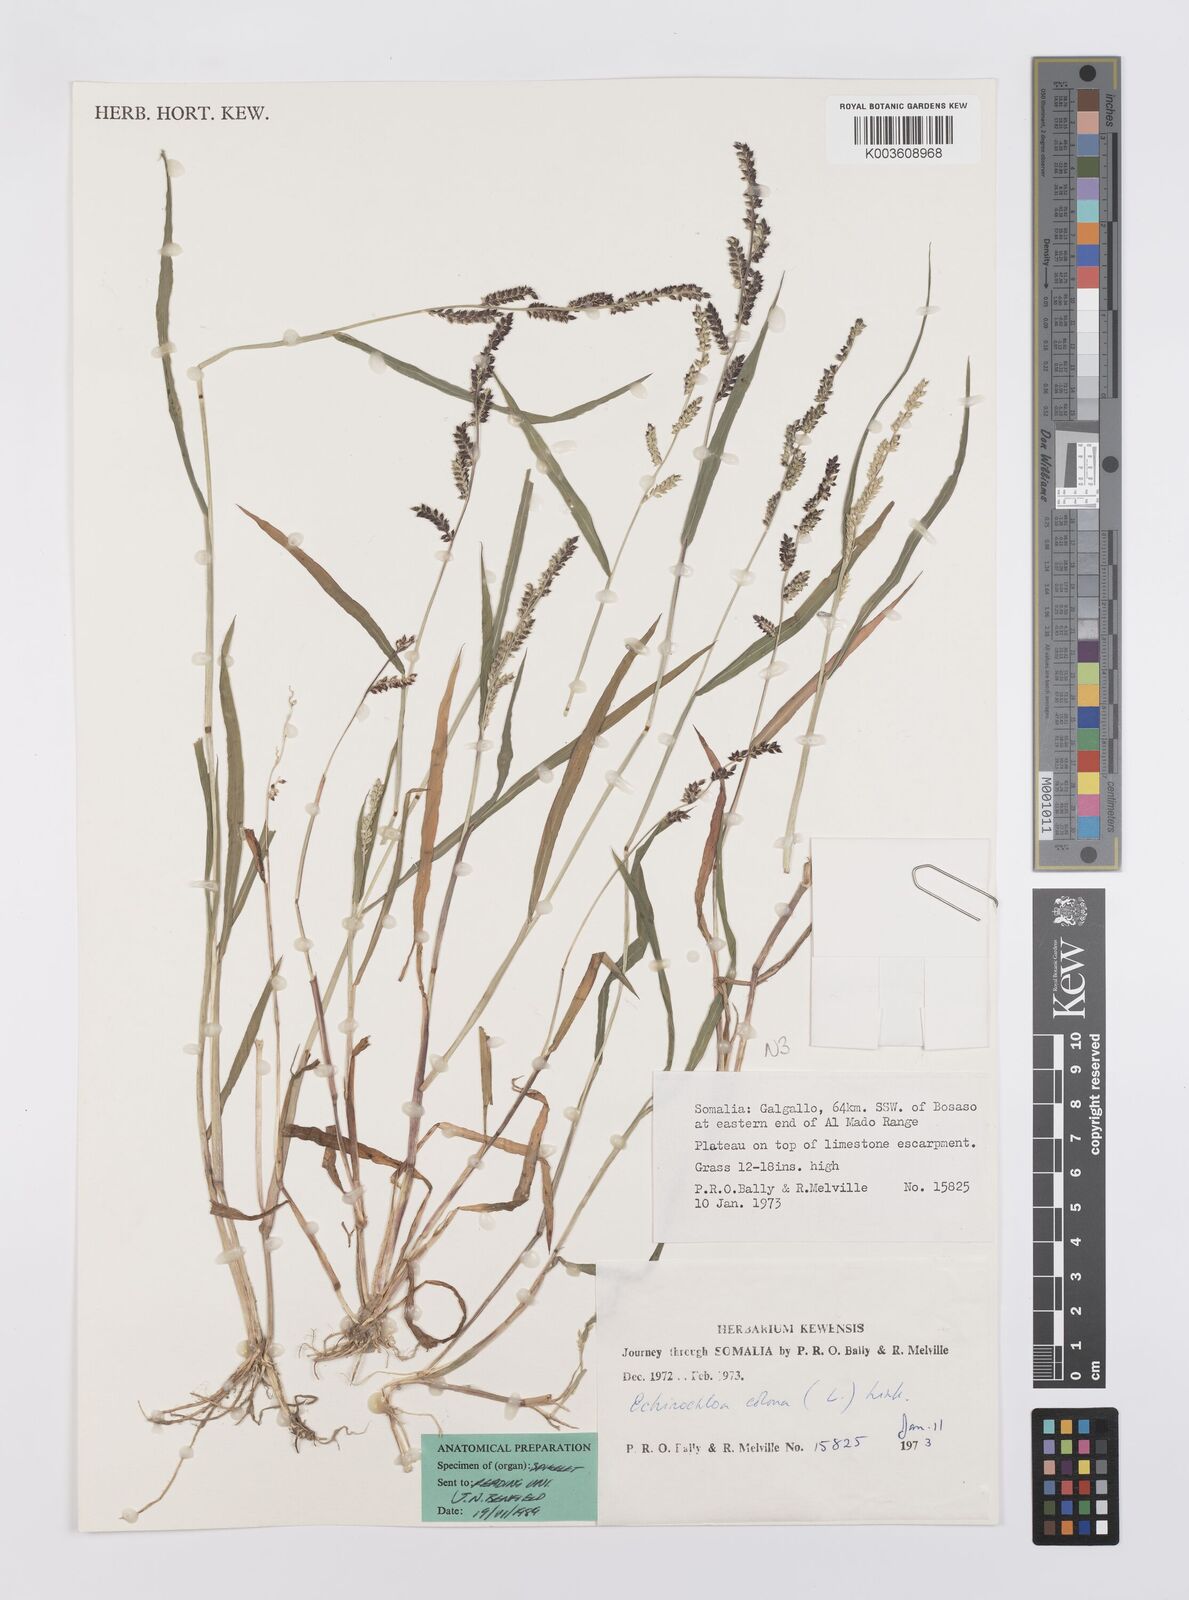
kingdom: Plantae
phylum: Tracheophyta
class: Liliopsida
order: Poales
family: Poaceae
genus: Echinochloa
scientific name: Echinochloa colonum
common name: Jungle rice
